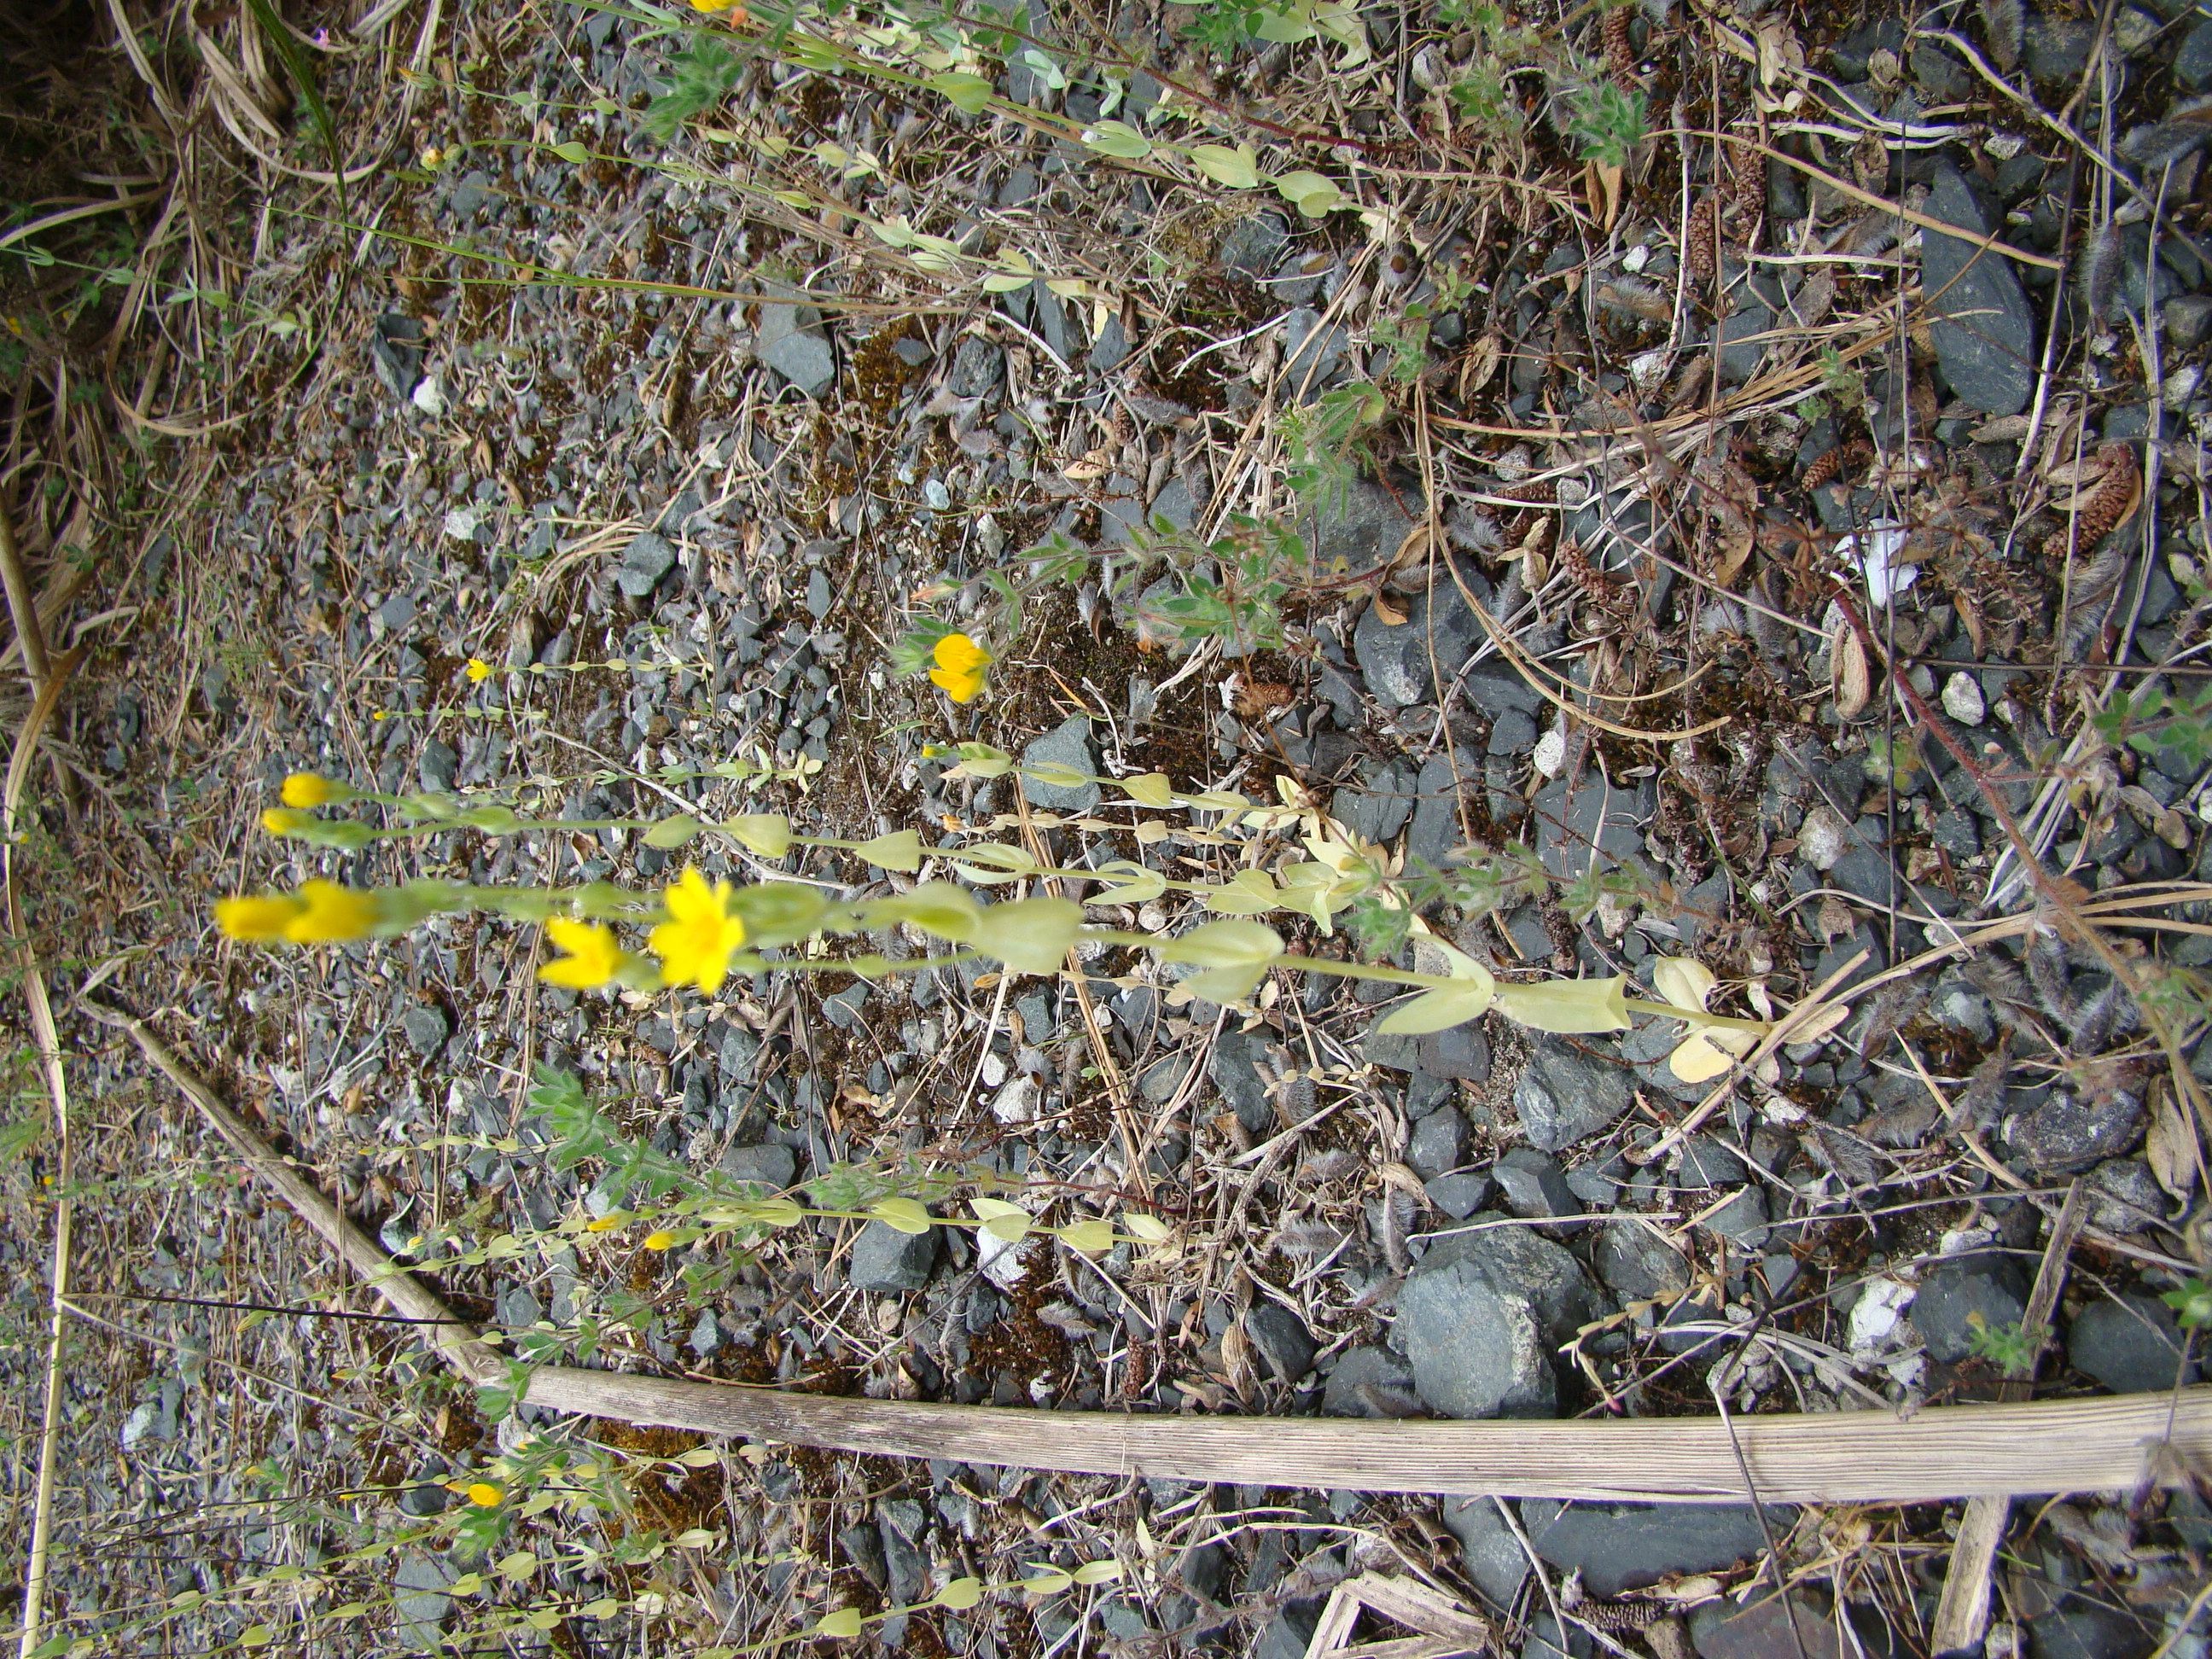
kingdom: Plantae
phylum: Tracheophyta
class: Magnoliopsida
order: Gentianales
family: Gentianaceae
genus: Blackstonia
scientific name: Blackstonia perfoliata
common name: Yellow-wort
